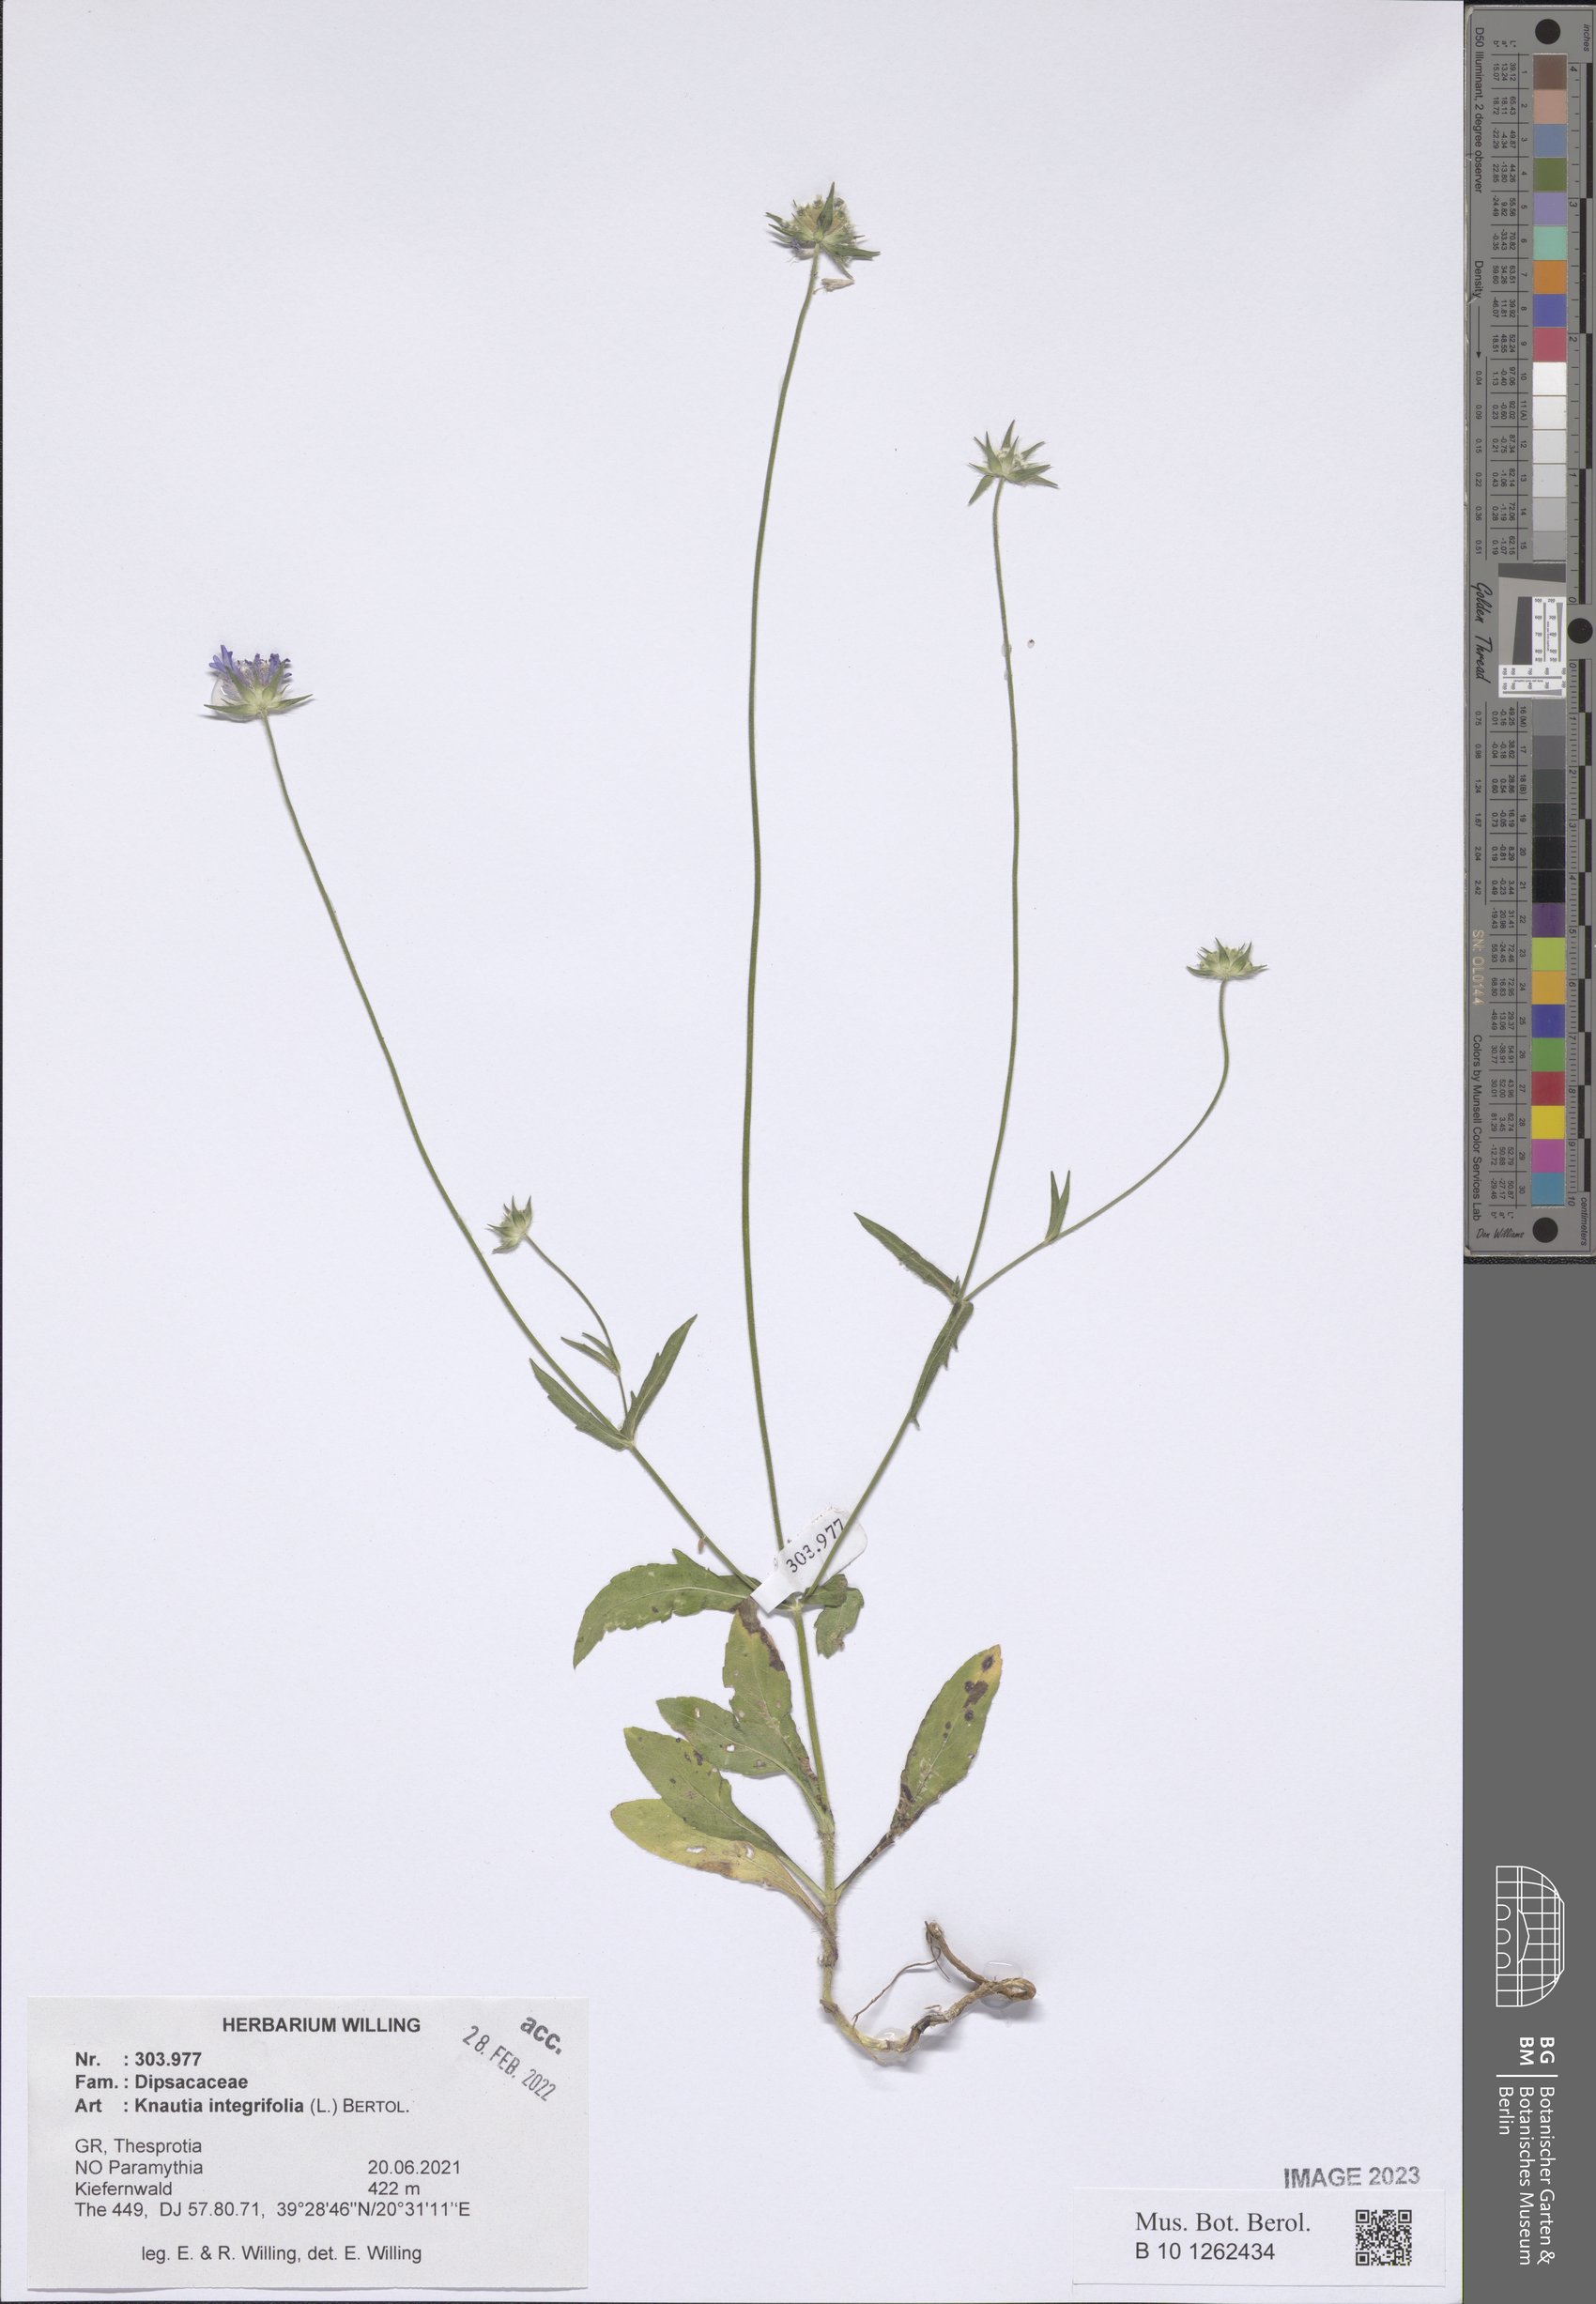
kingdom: Plantae
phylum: Tracheophyta
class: Magnoliopsida
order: Dipsacales
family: Caprifoliaceae
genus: Knautia
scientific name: Knautia integrifolia
